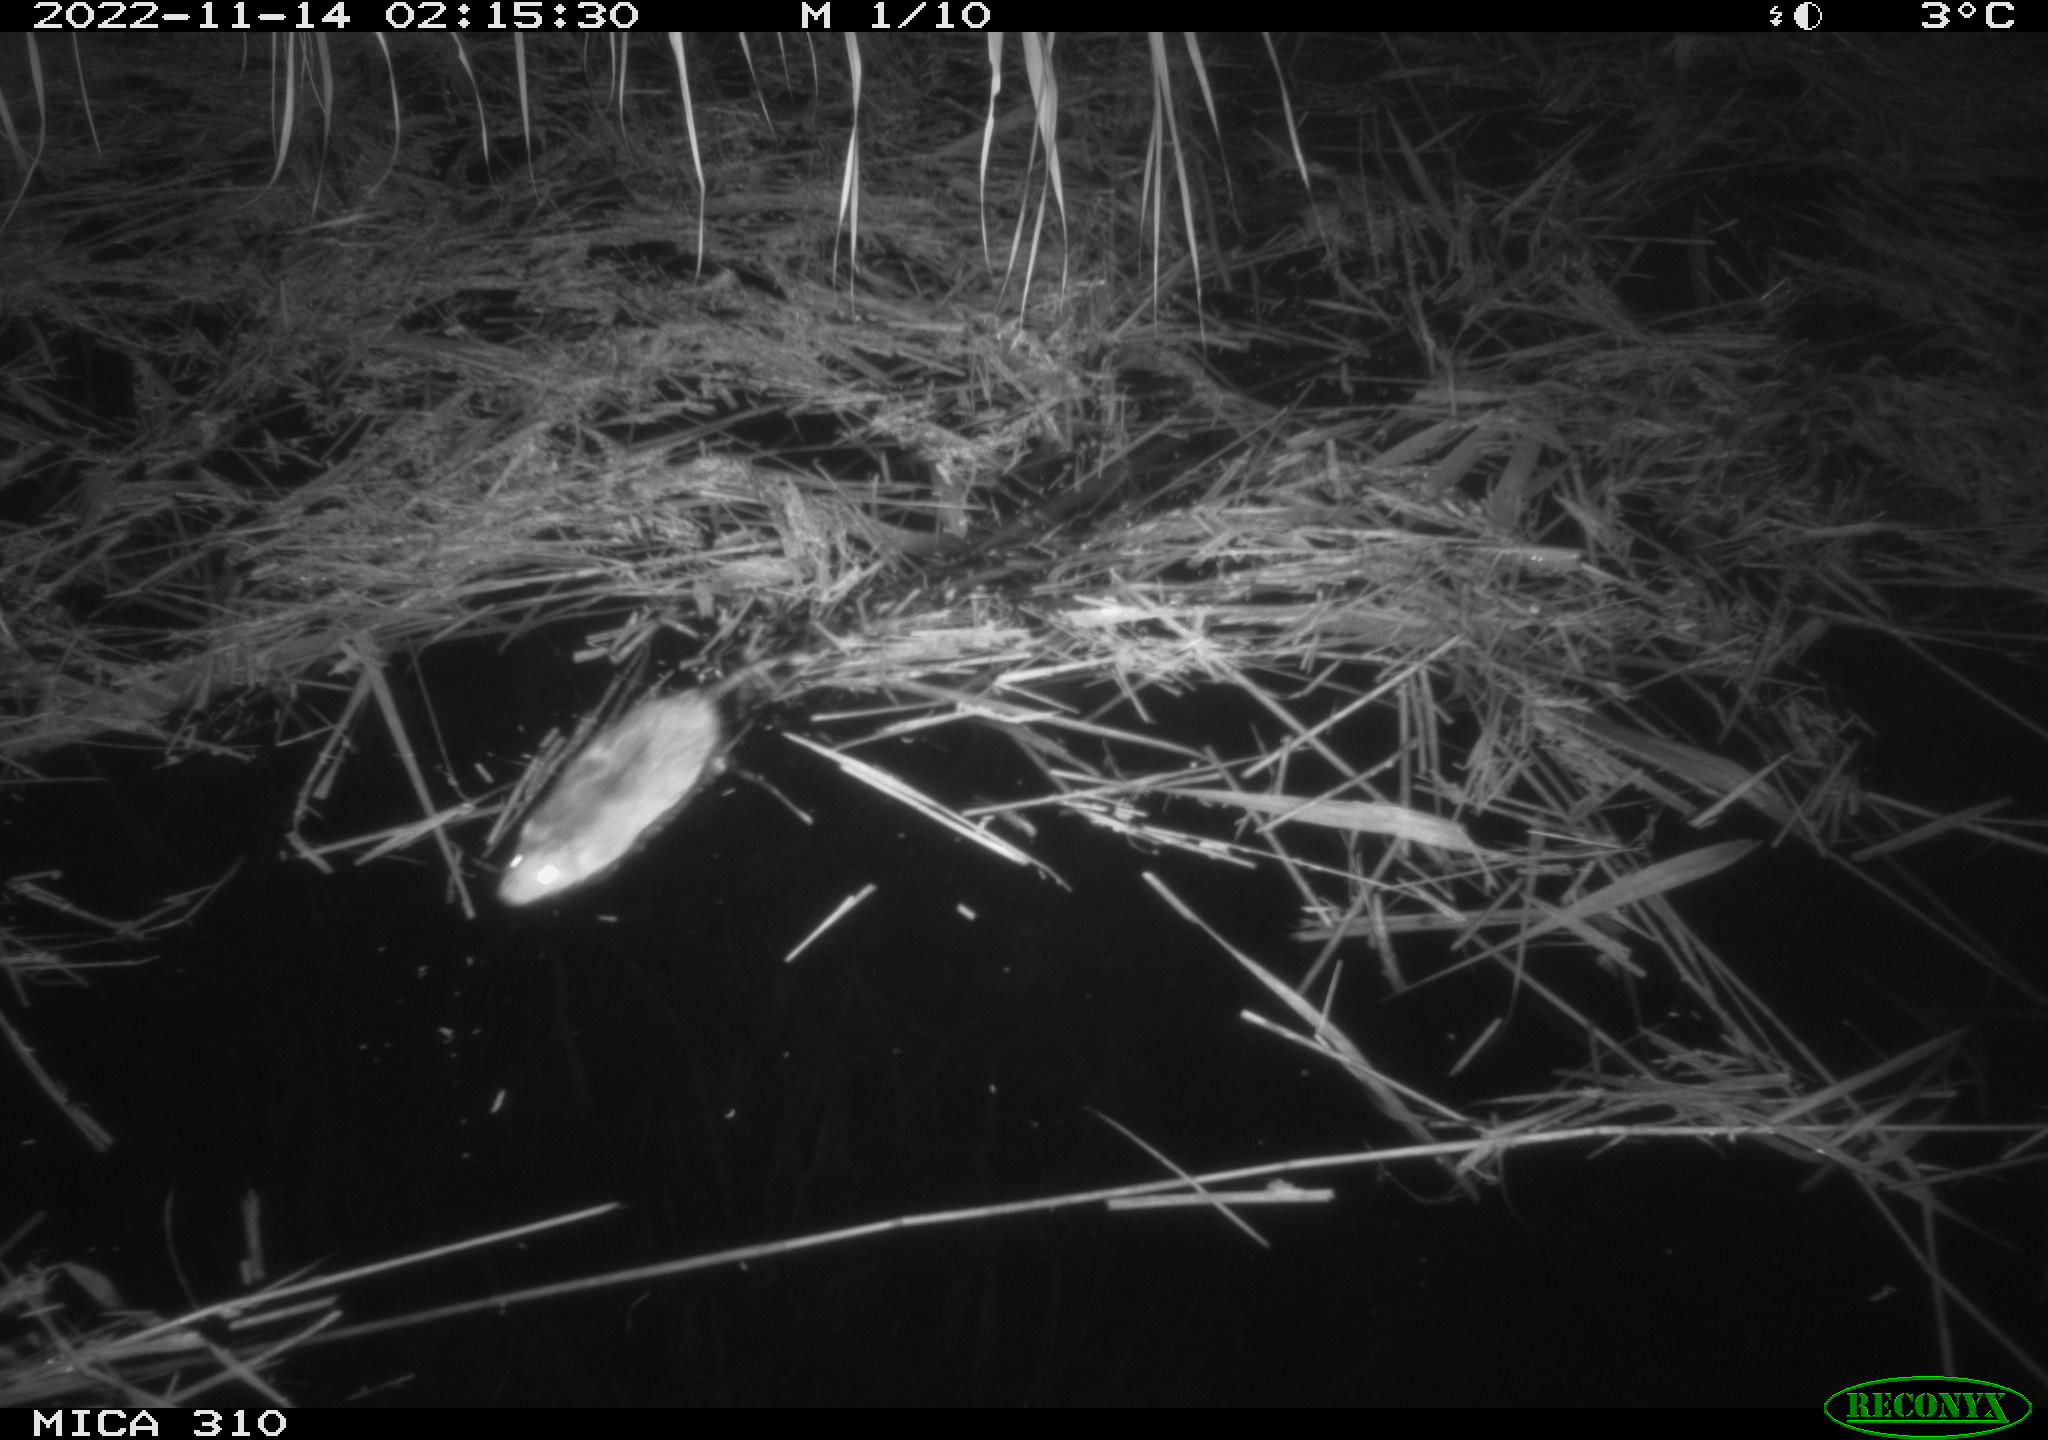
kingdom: Animalia
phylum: Chordata
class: Mammalia
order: Rodentia
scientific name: Rodentia
